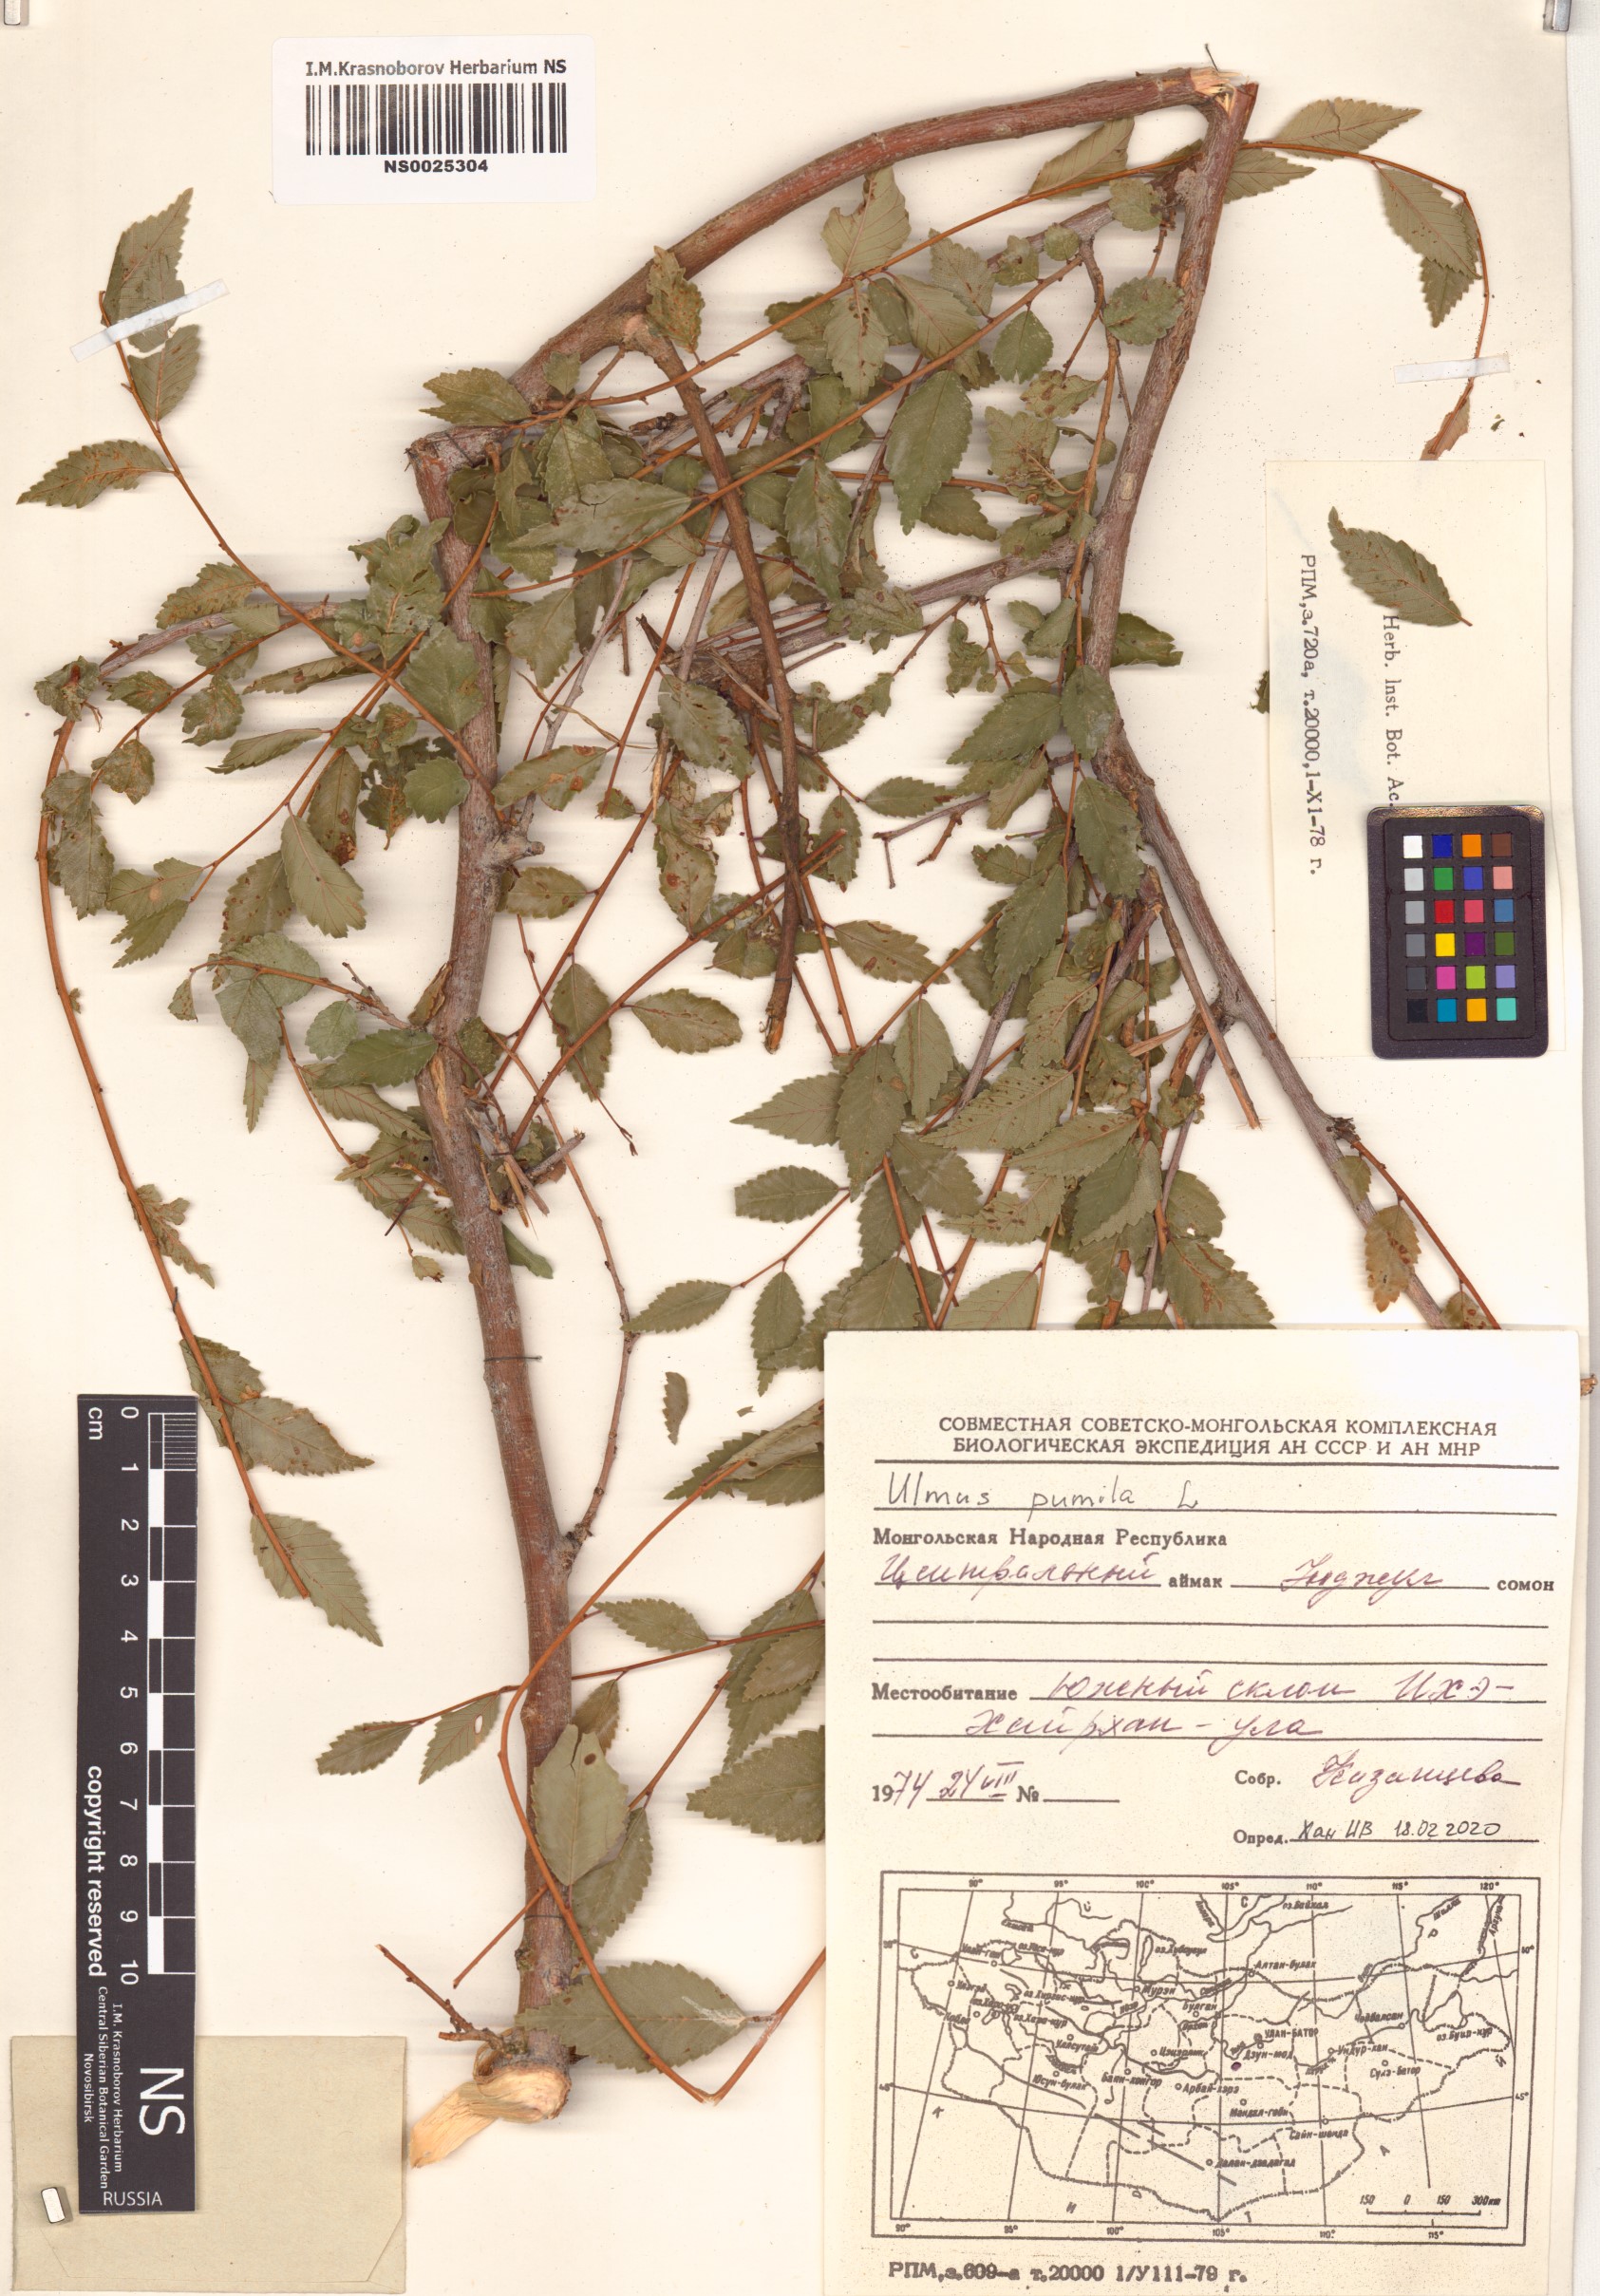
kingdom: Plantae
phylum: Tracheophyta
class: Magnoliopsida
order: Rosales
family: Ulmaceae
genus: Ulmus
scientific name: Ulmus pumila
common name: Siberian elm
